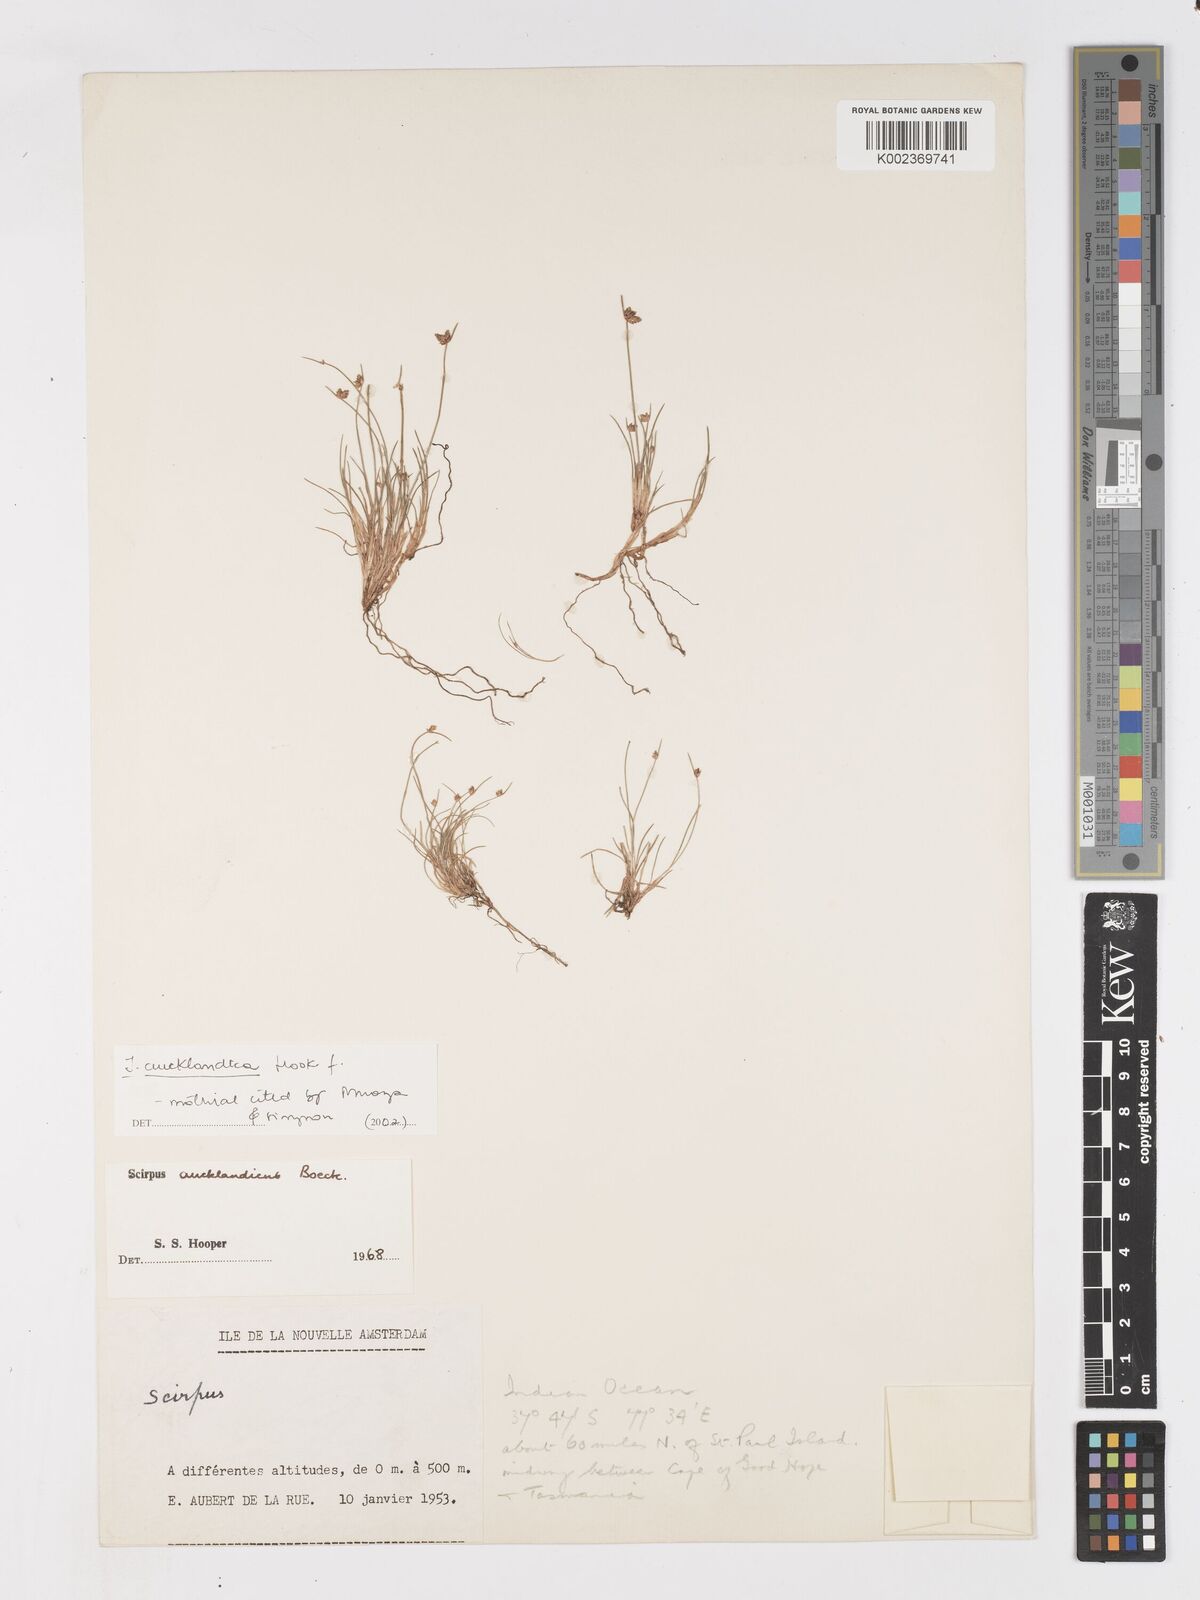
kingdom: Plantae
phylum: Tracheophyta
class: Liliopsida
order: Poales
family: Cyperaceae
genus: Isolepis
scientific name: Isolepis aucklandica
